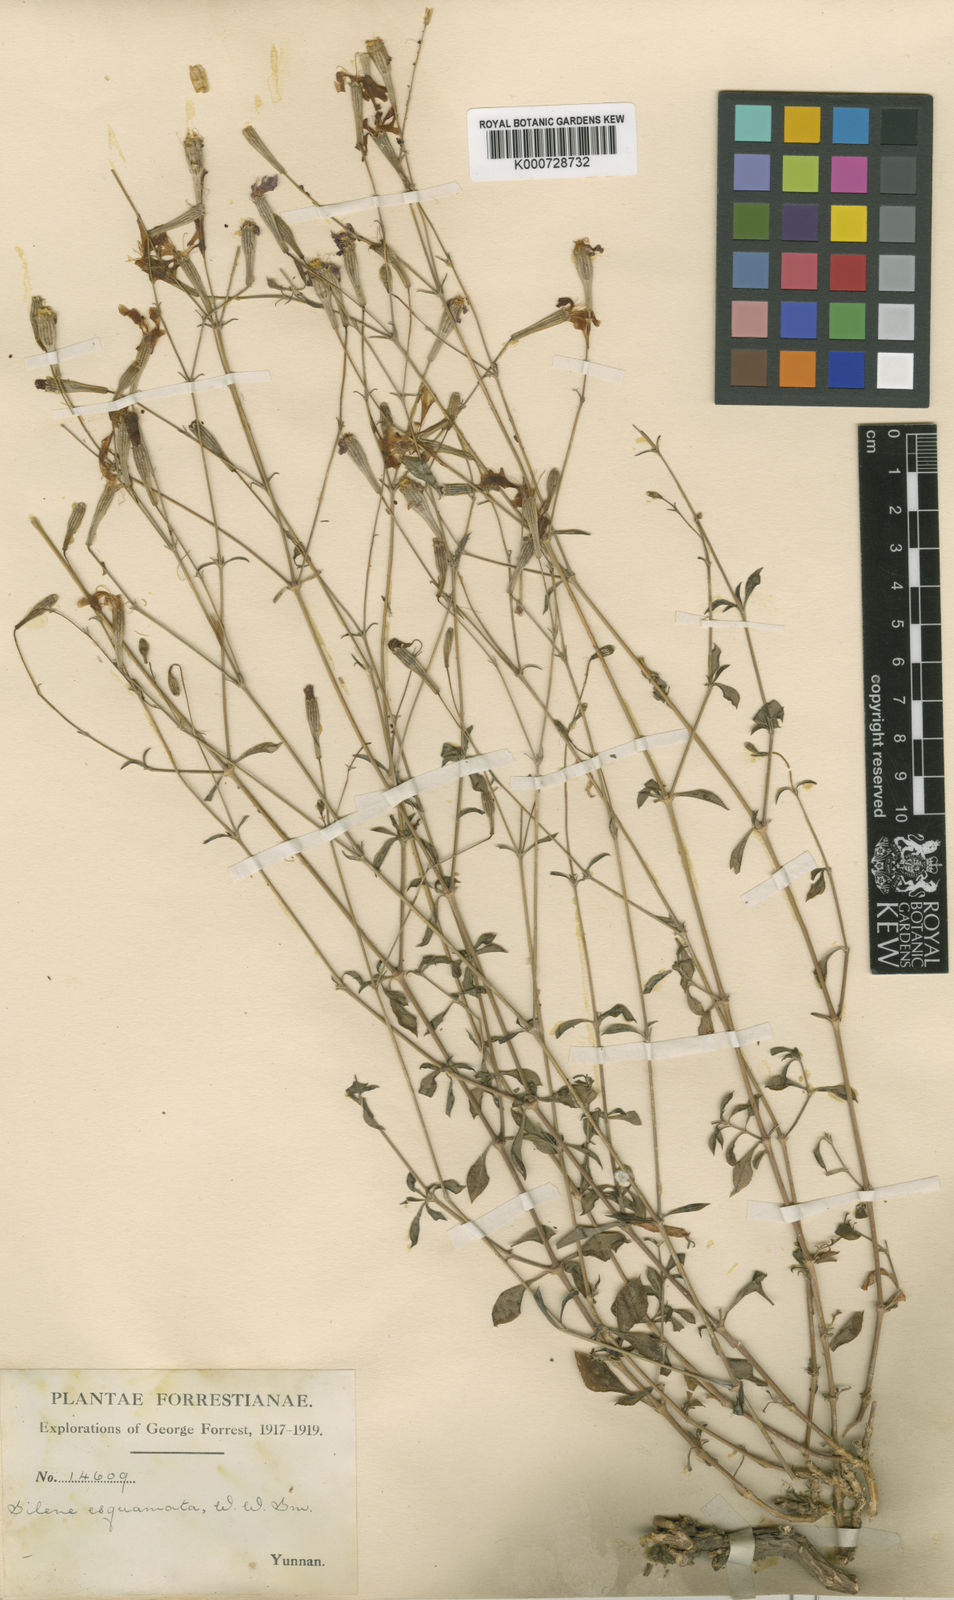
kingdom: Plantae
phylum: Tracheophyta
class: Magnoliopsida
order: Caryophyllales
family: Caryophyllaceae
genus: Silene
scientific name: Silene esquamata
